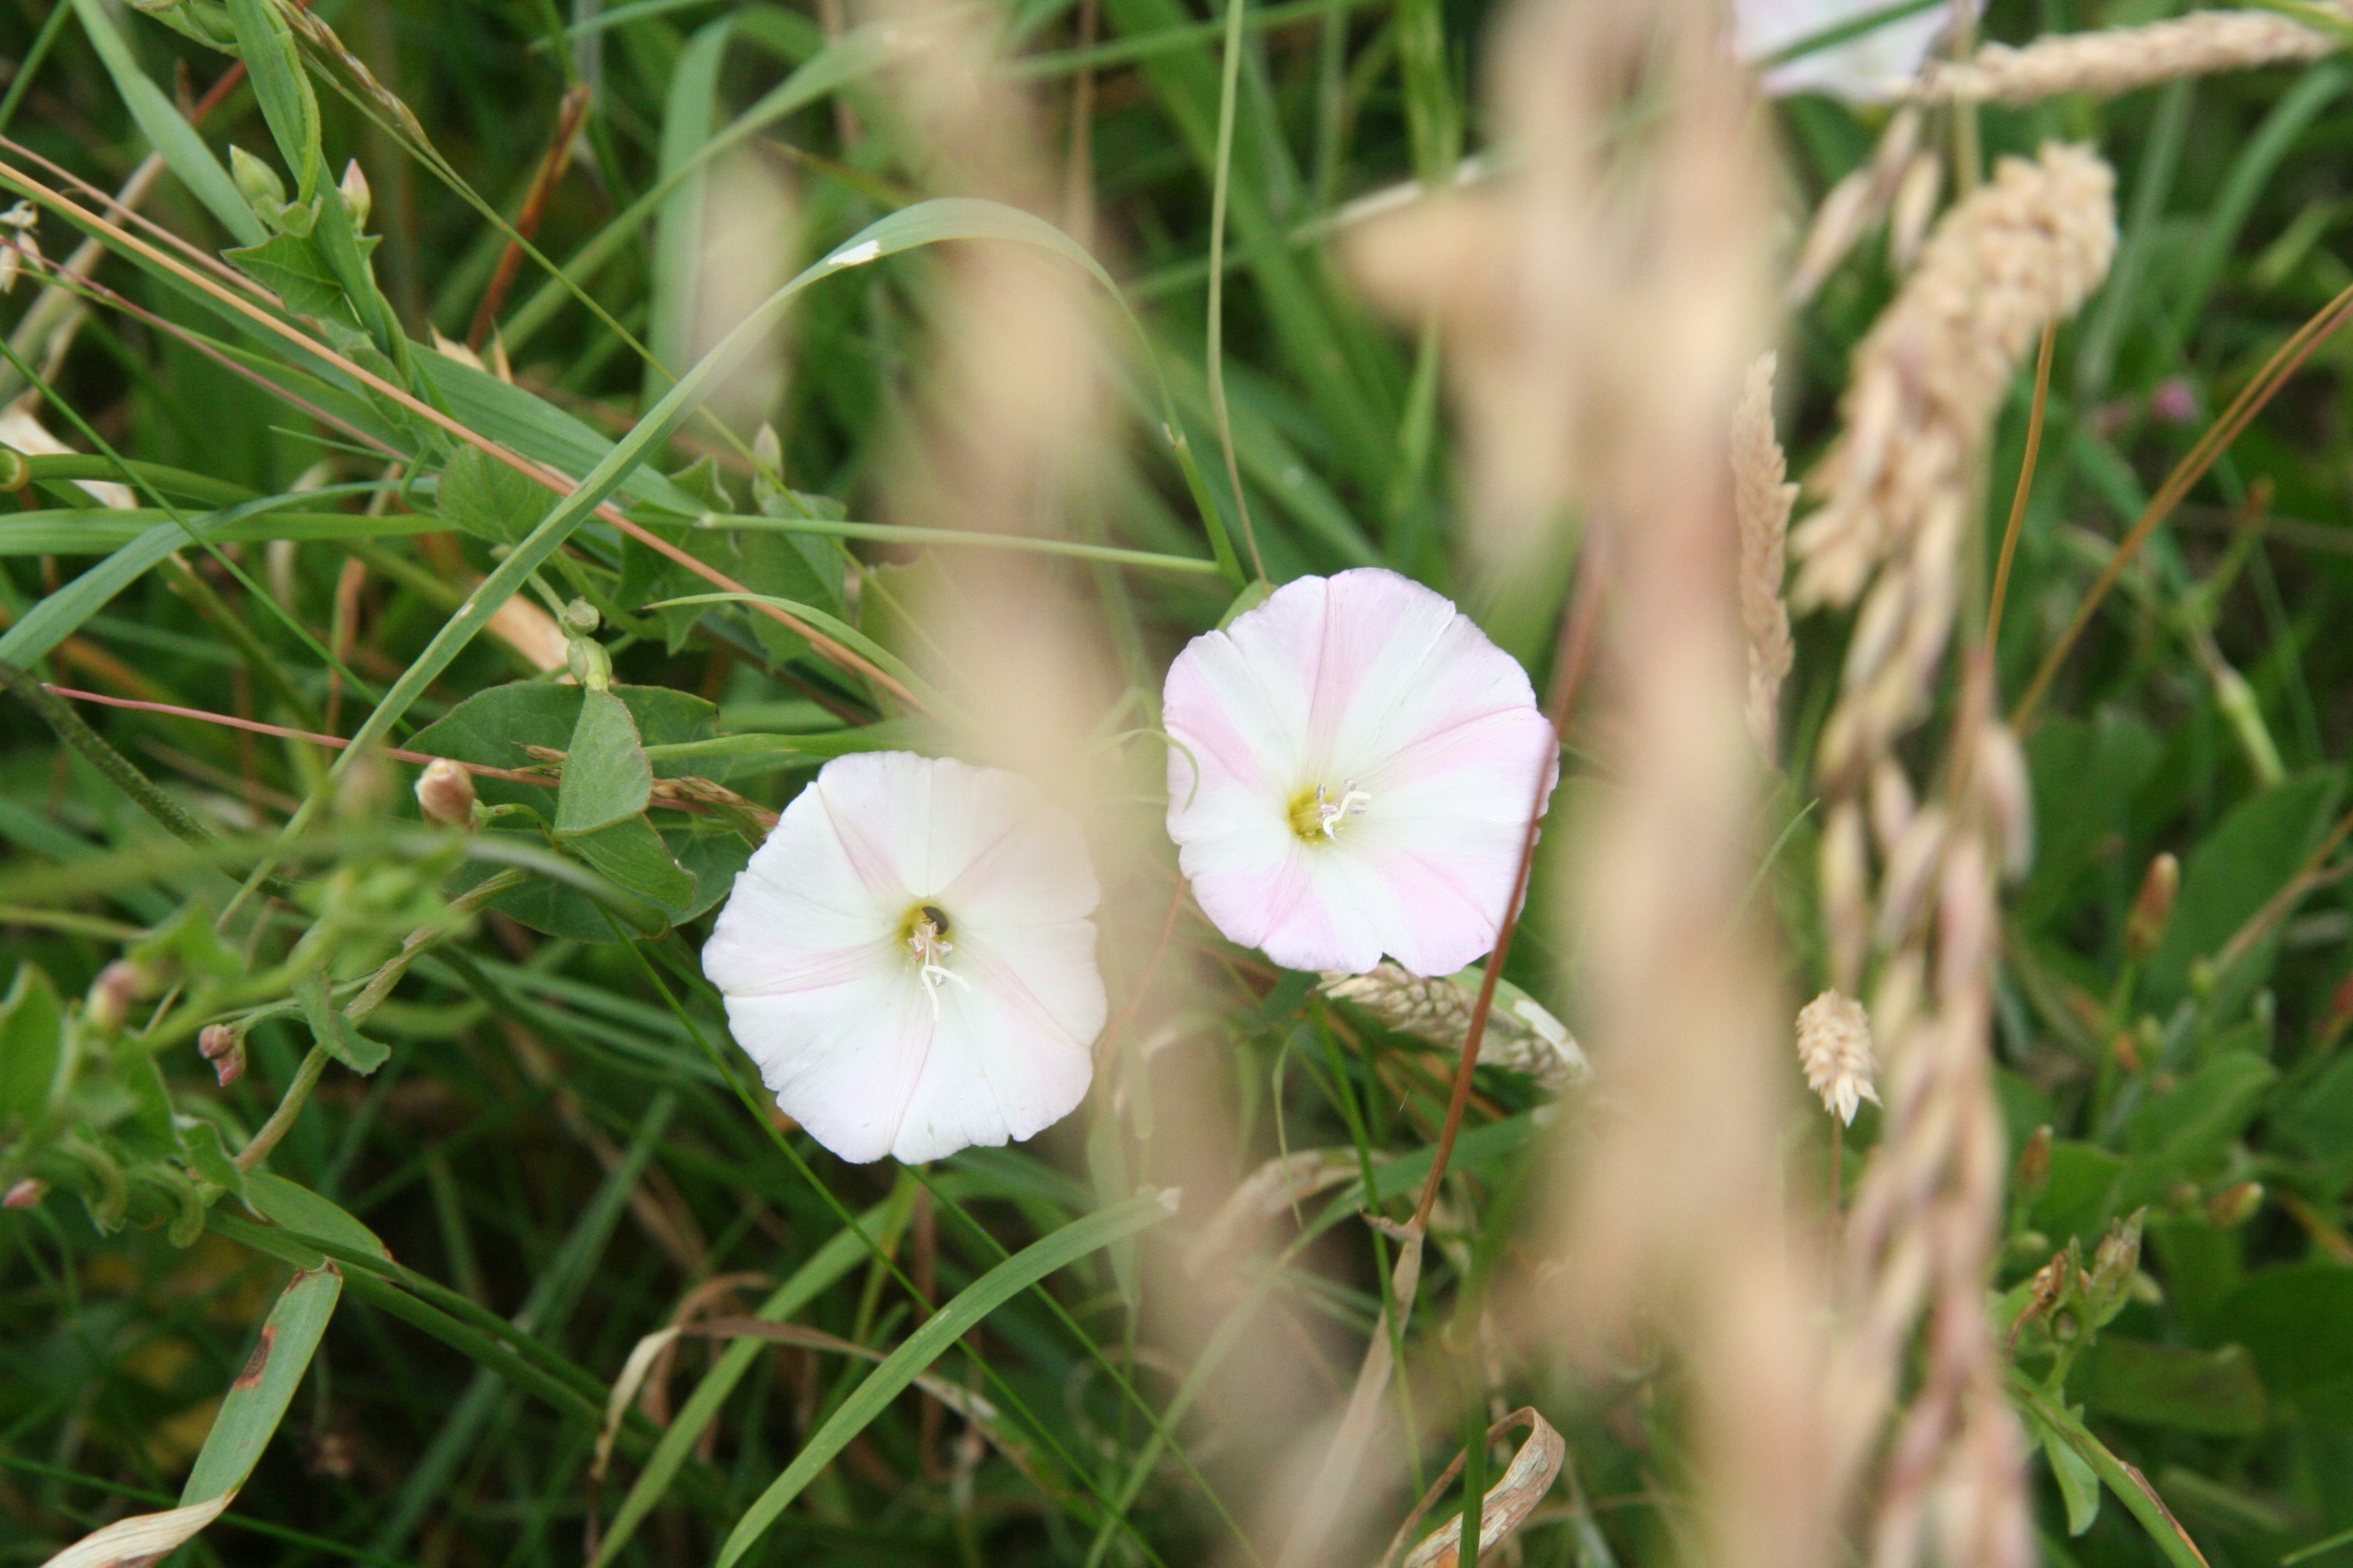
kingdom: Plantae
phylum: Tracheophyta
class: Magnoliopsida
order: Solanales
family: Convolvulaceae
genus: Convolvulus
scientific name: Convolvulus arvensis
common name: Ager-snerle
